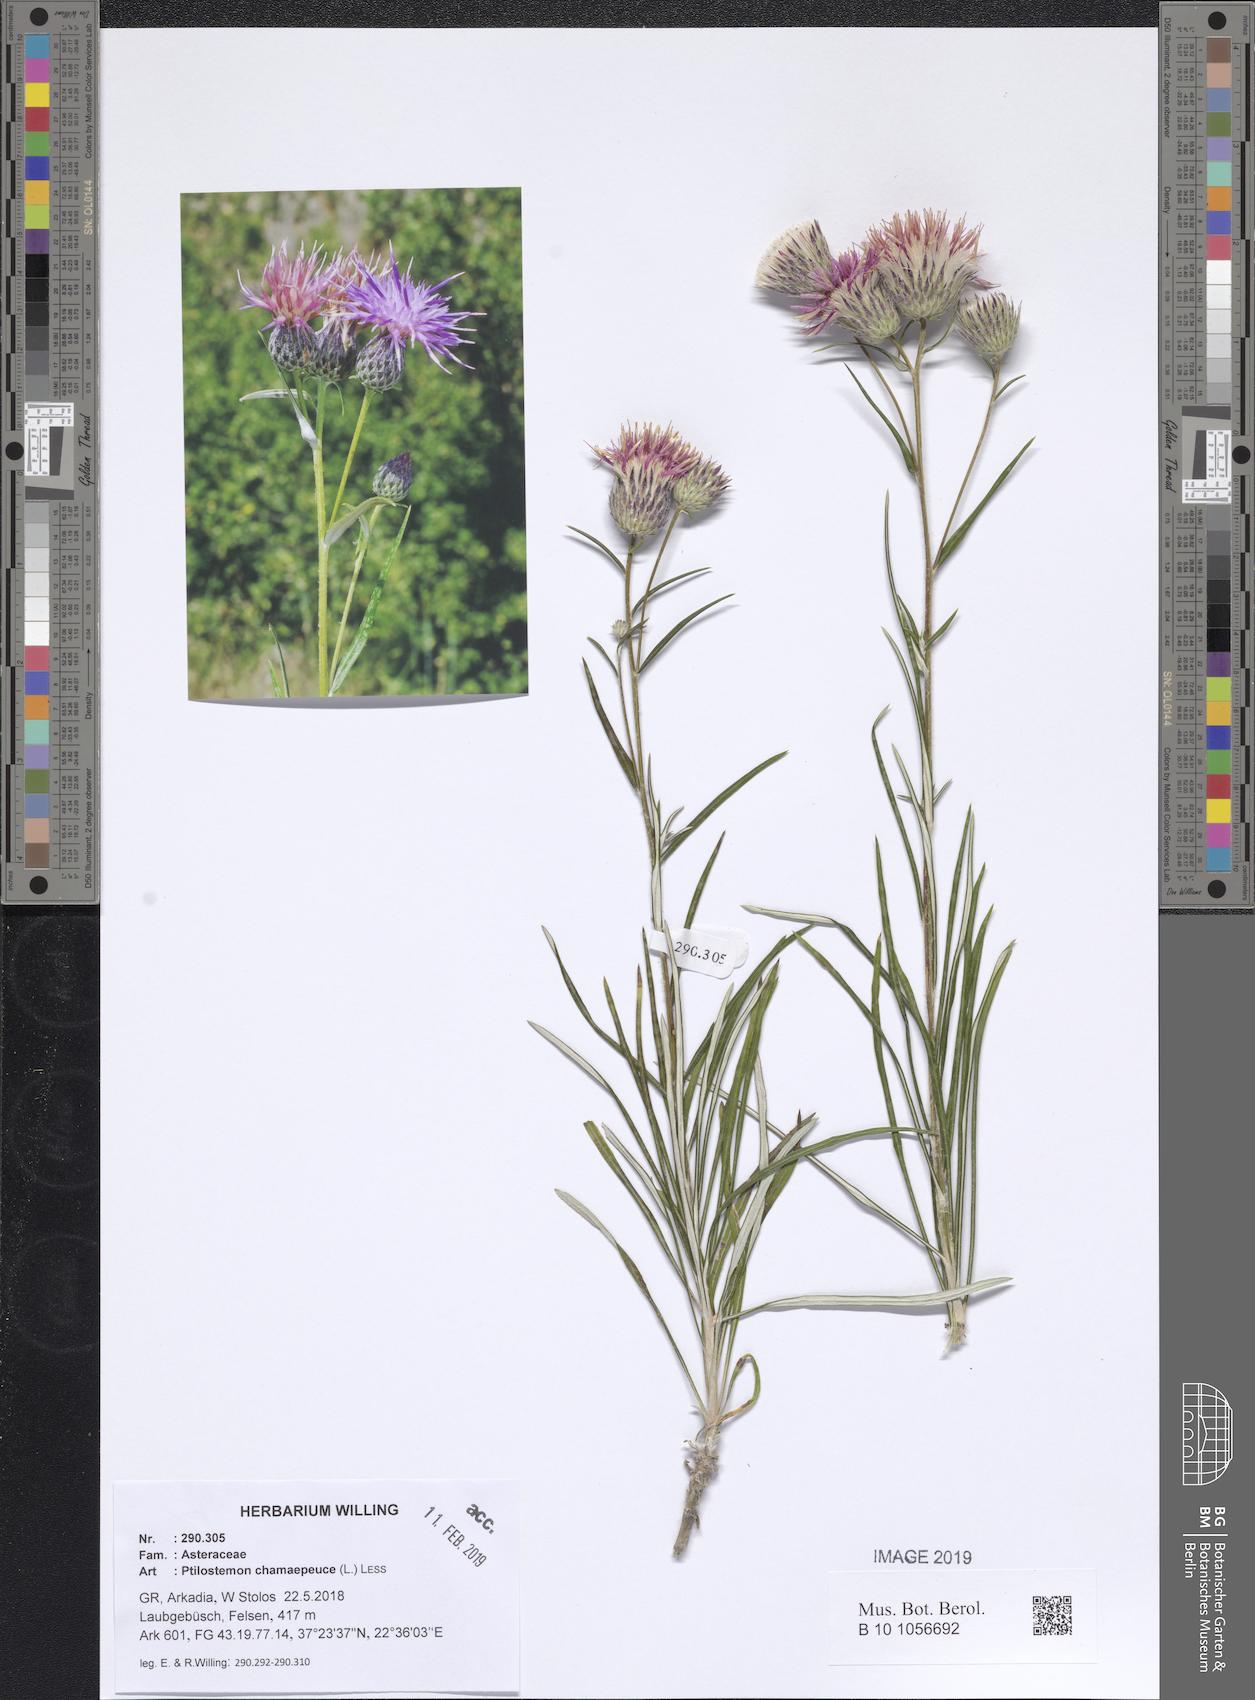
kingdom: Plantae
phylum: Tracheophyta
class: Magnoliopsida
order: Asterales
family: Asteraceae
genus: Ptilostemon
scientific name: Ptilostemon chamaepeuce
